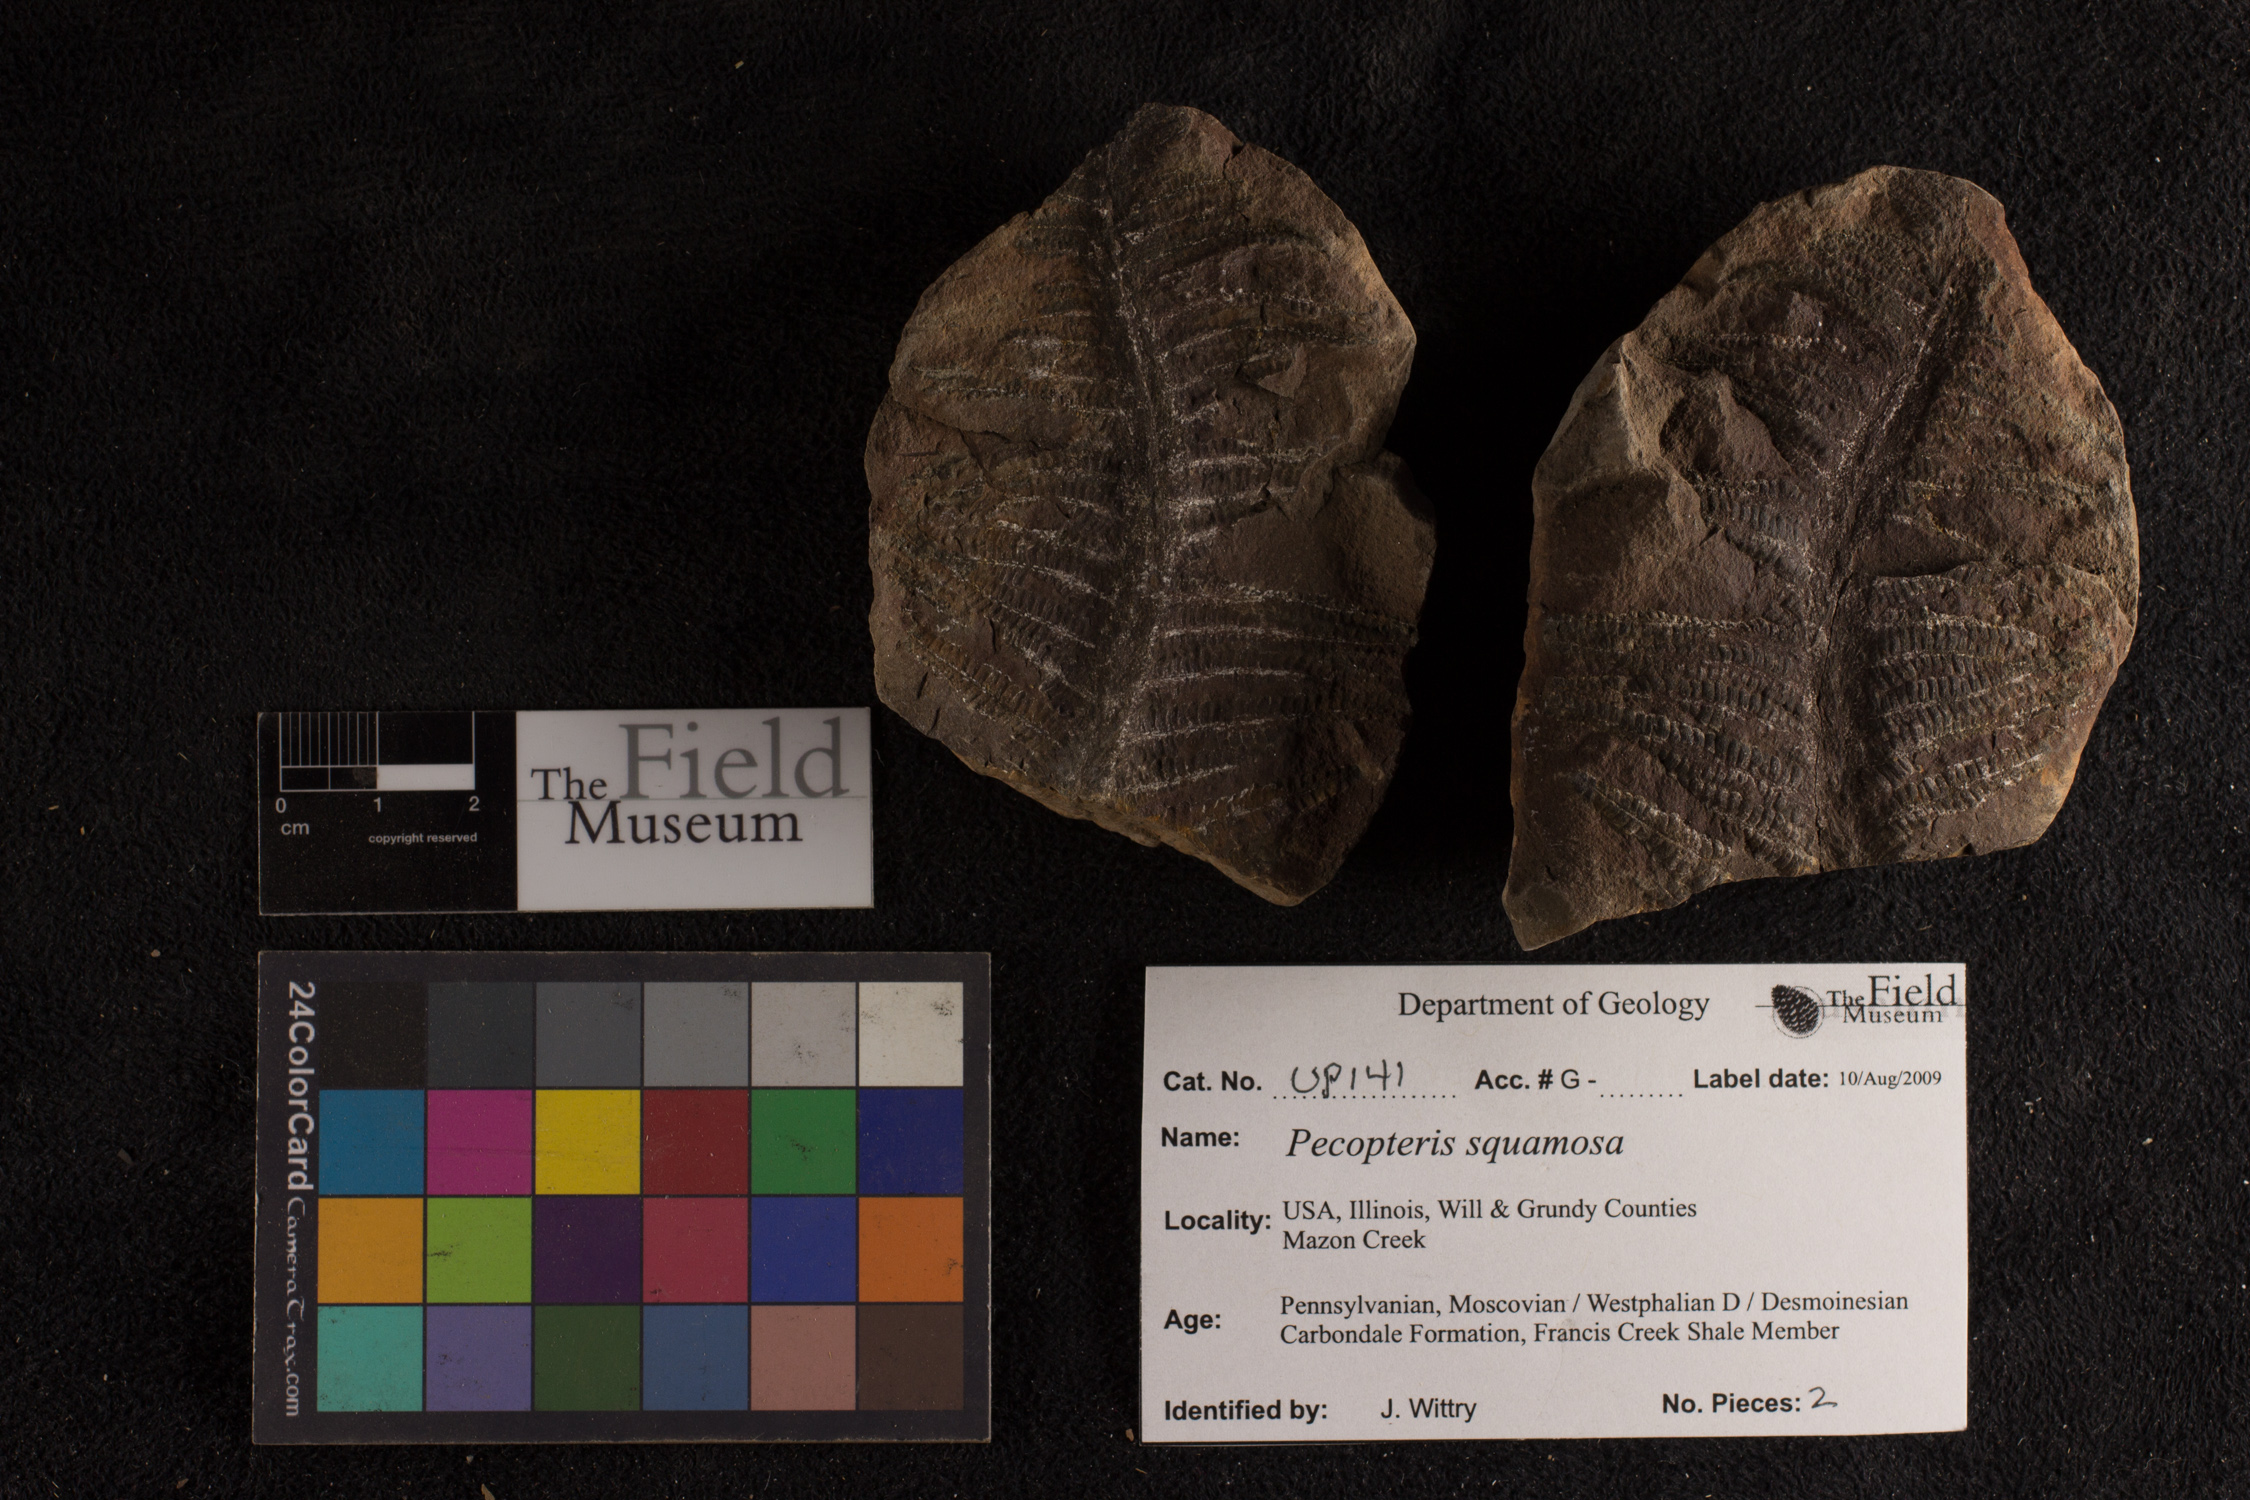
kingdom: Plantae
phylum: Tracheophyta
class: Polypodiopsida
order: Marattiales
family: Asterothecaceae
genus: Pecopteris
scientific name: Pecopteris
